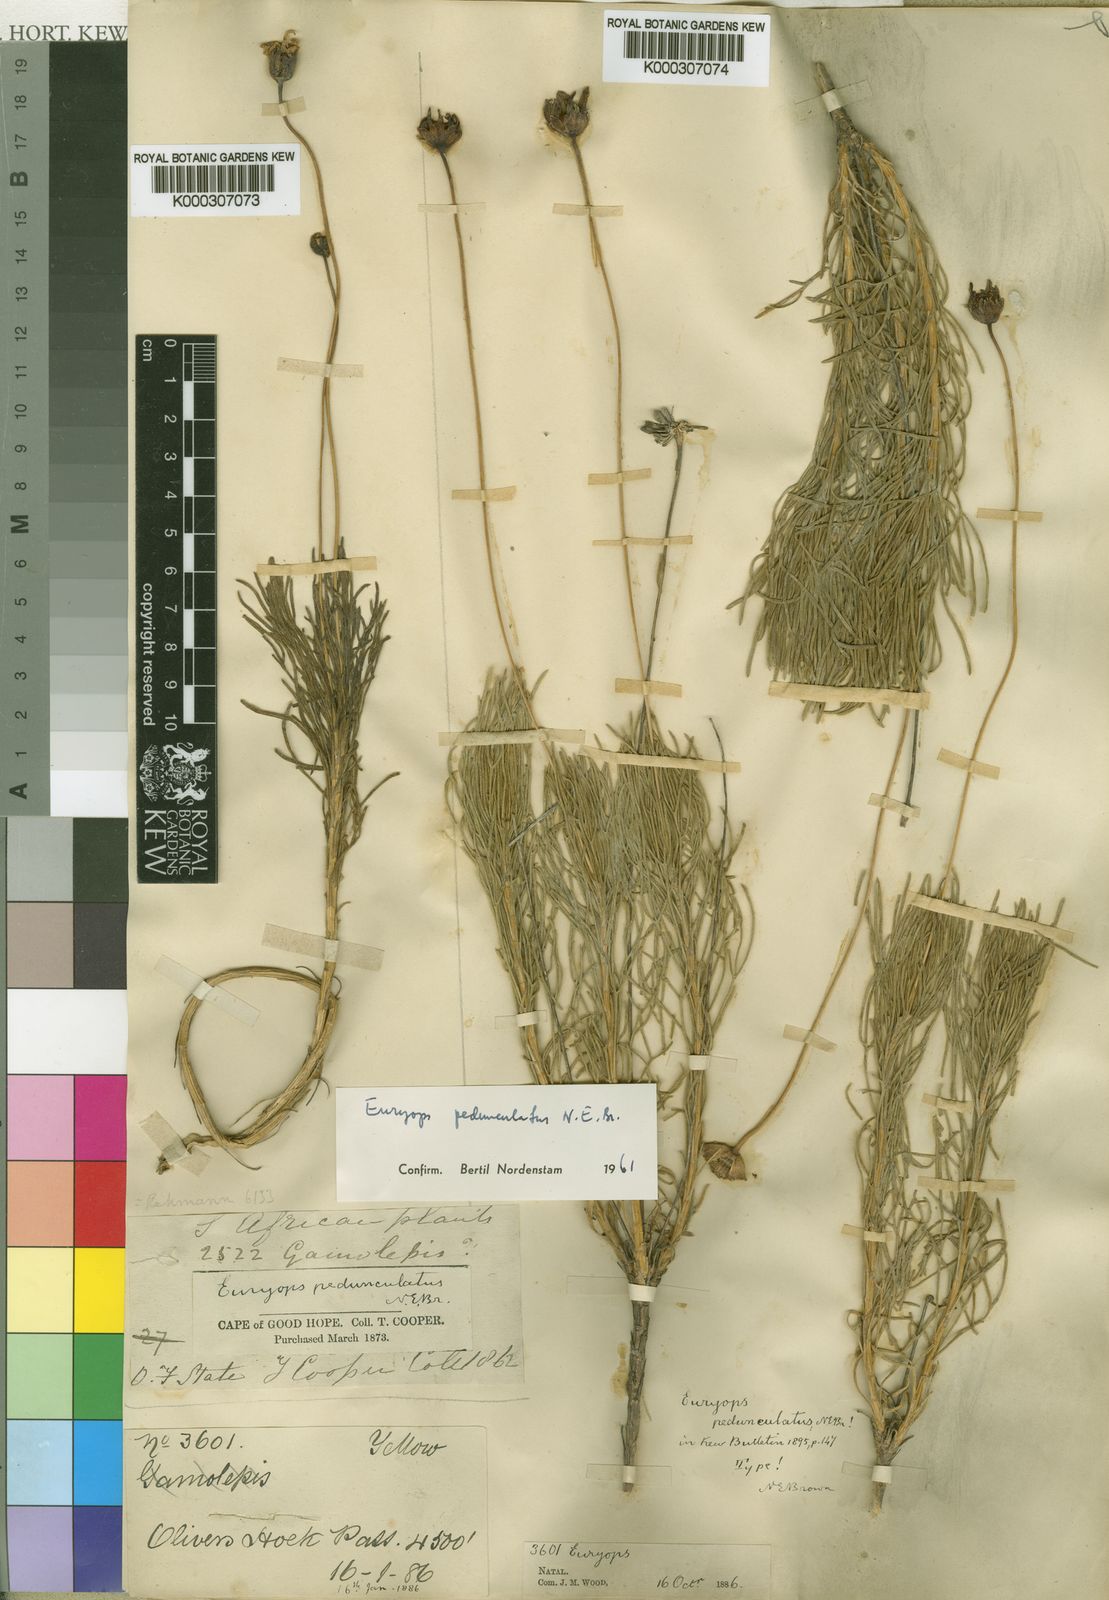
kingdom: Plantae
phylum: Tracheophyta
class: Magnoliopsida
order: Asterales
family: Asteraceae
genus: Euryops
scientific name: Euryops pedunculatus
